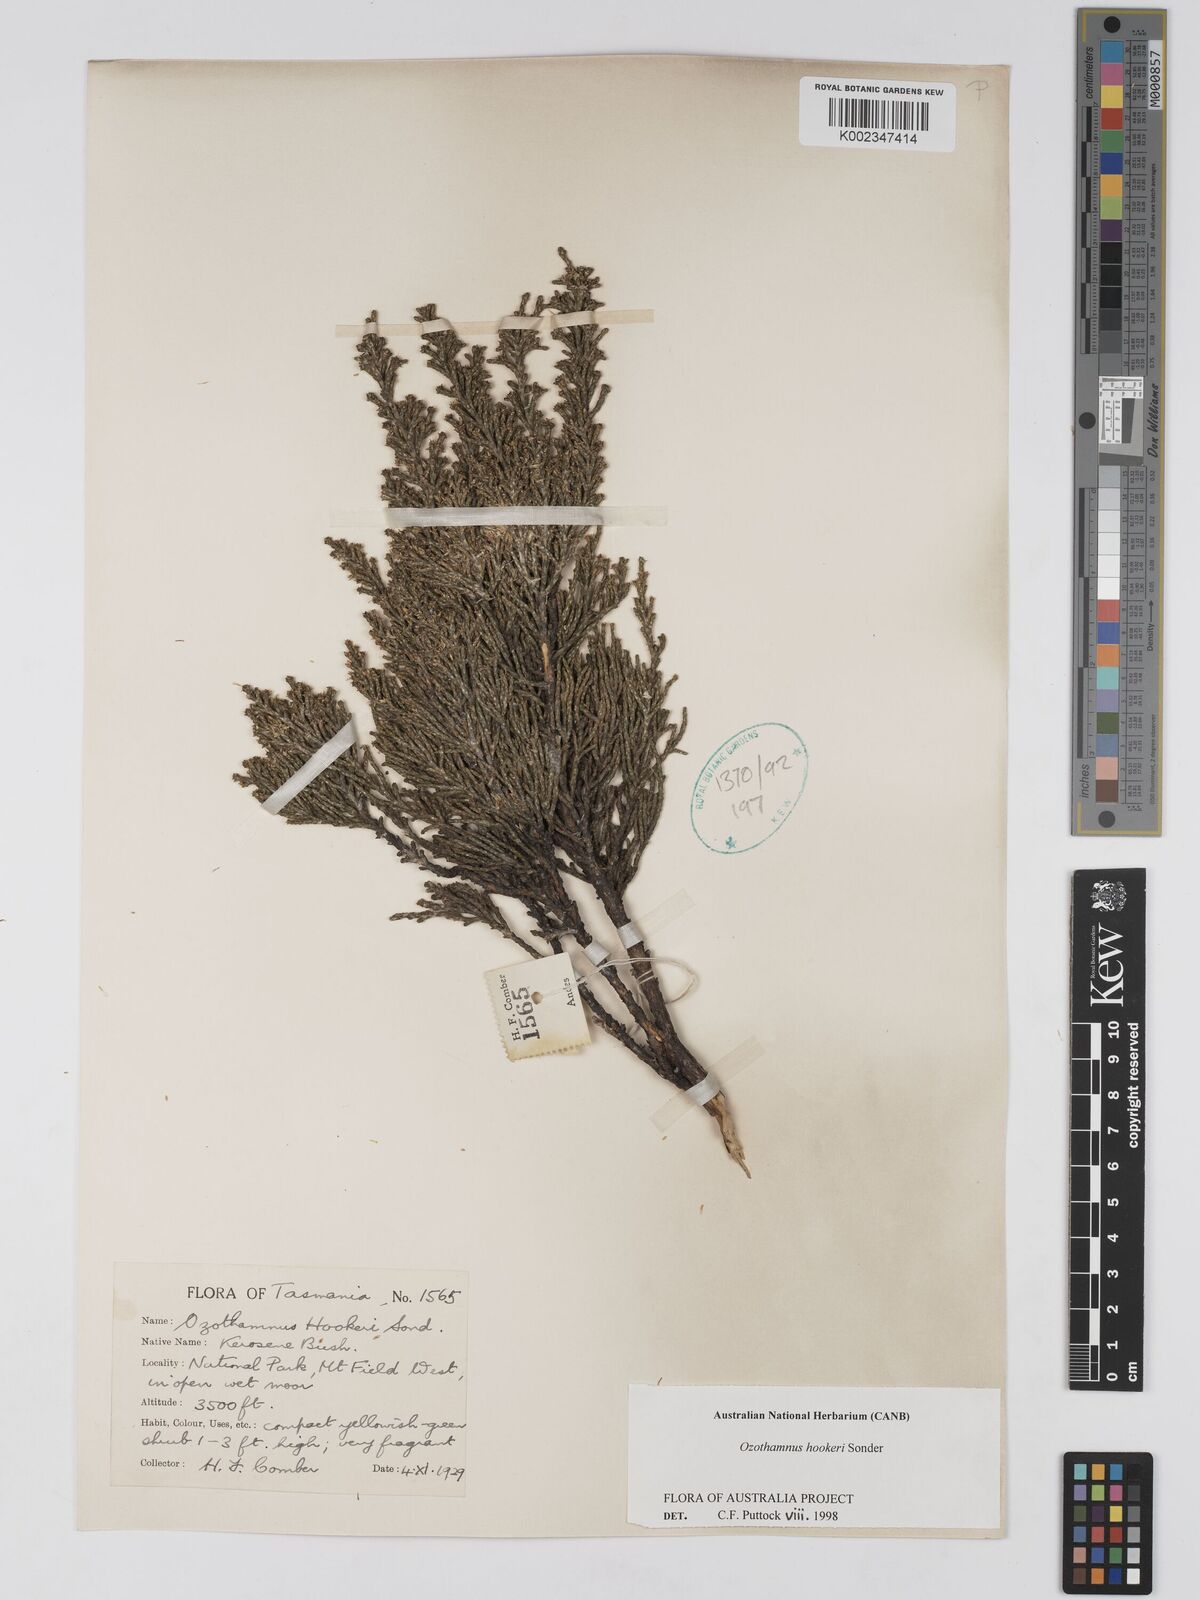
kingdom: Plantae
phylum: Tracheophyta
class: Magnoliopsida
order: Asterales
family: Asteraceae
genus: Ozothamnus
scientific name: Ozothamnus hookeri
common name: Kerosene-bush
